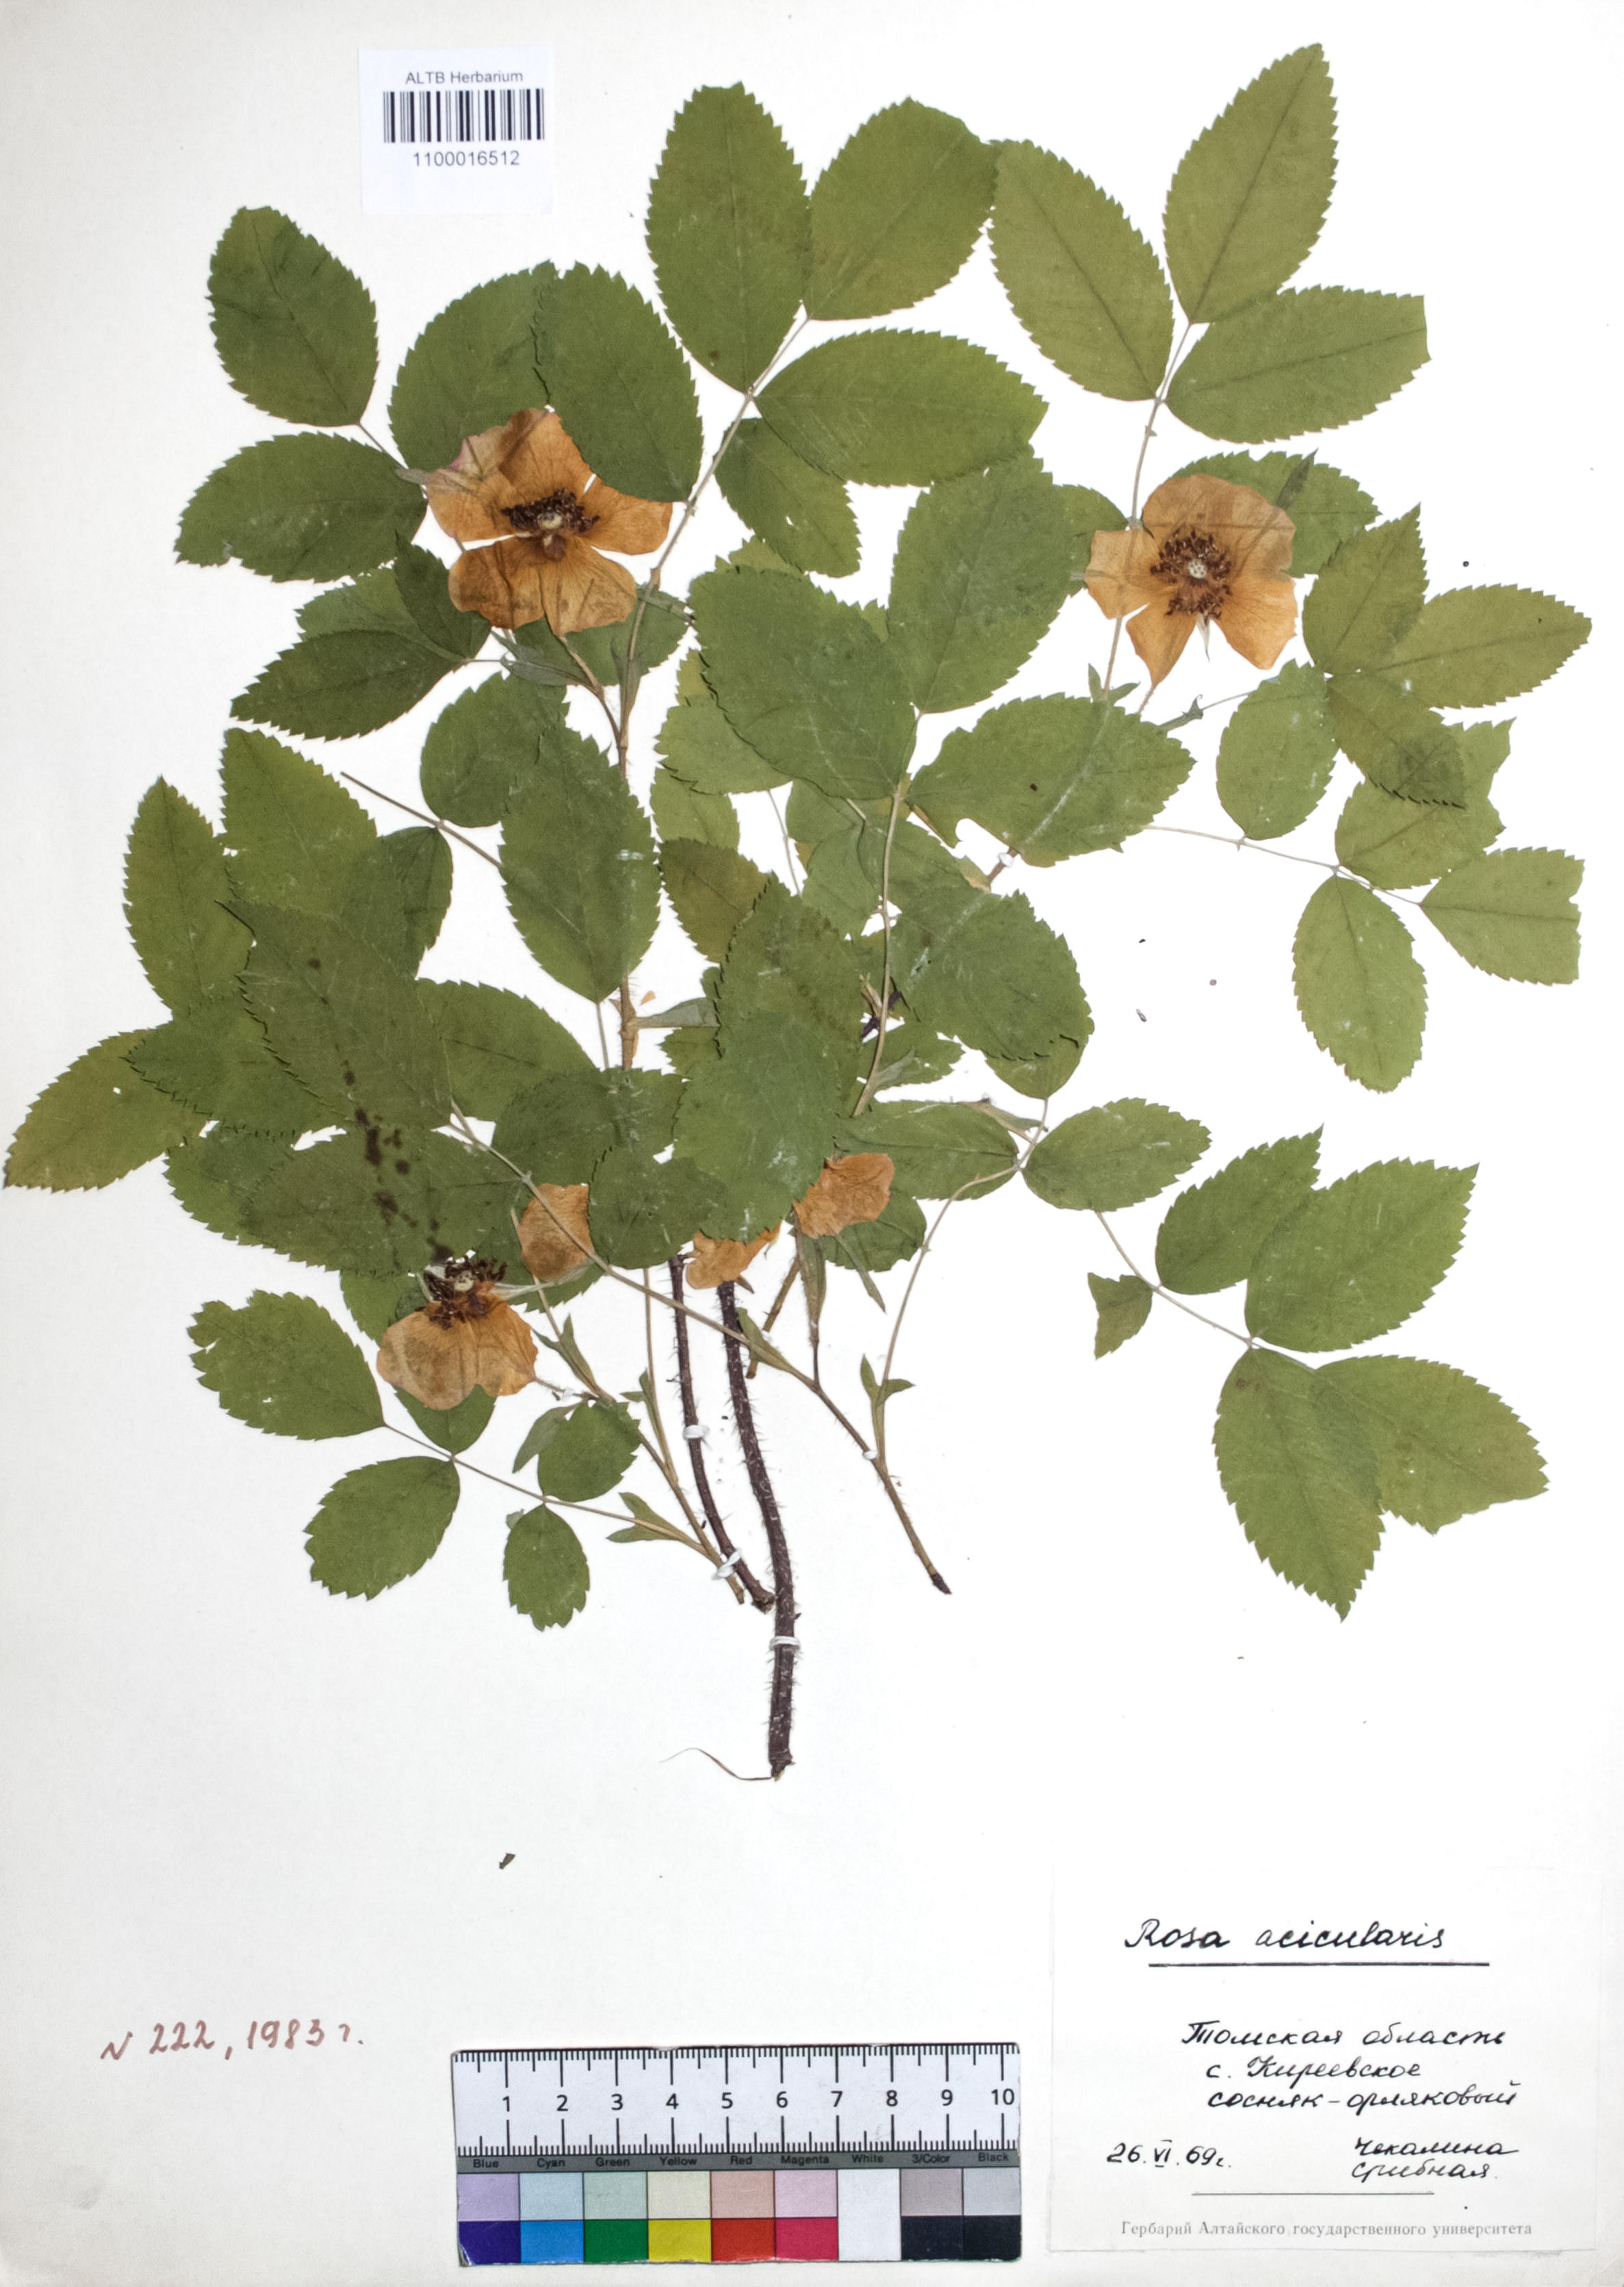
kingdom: Plantae
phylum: Tracheophyta
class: Magnoliopsida
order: Rosales
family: Rosaceae
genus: Rosa
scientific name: Rosa acicularis
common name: Prickly rose
